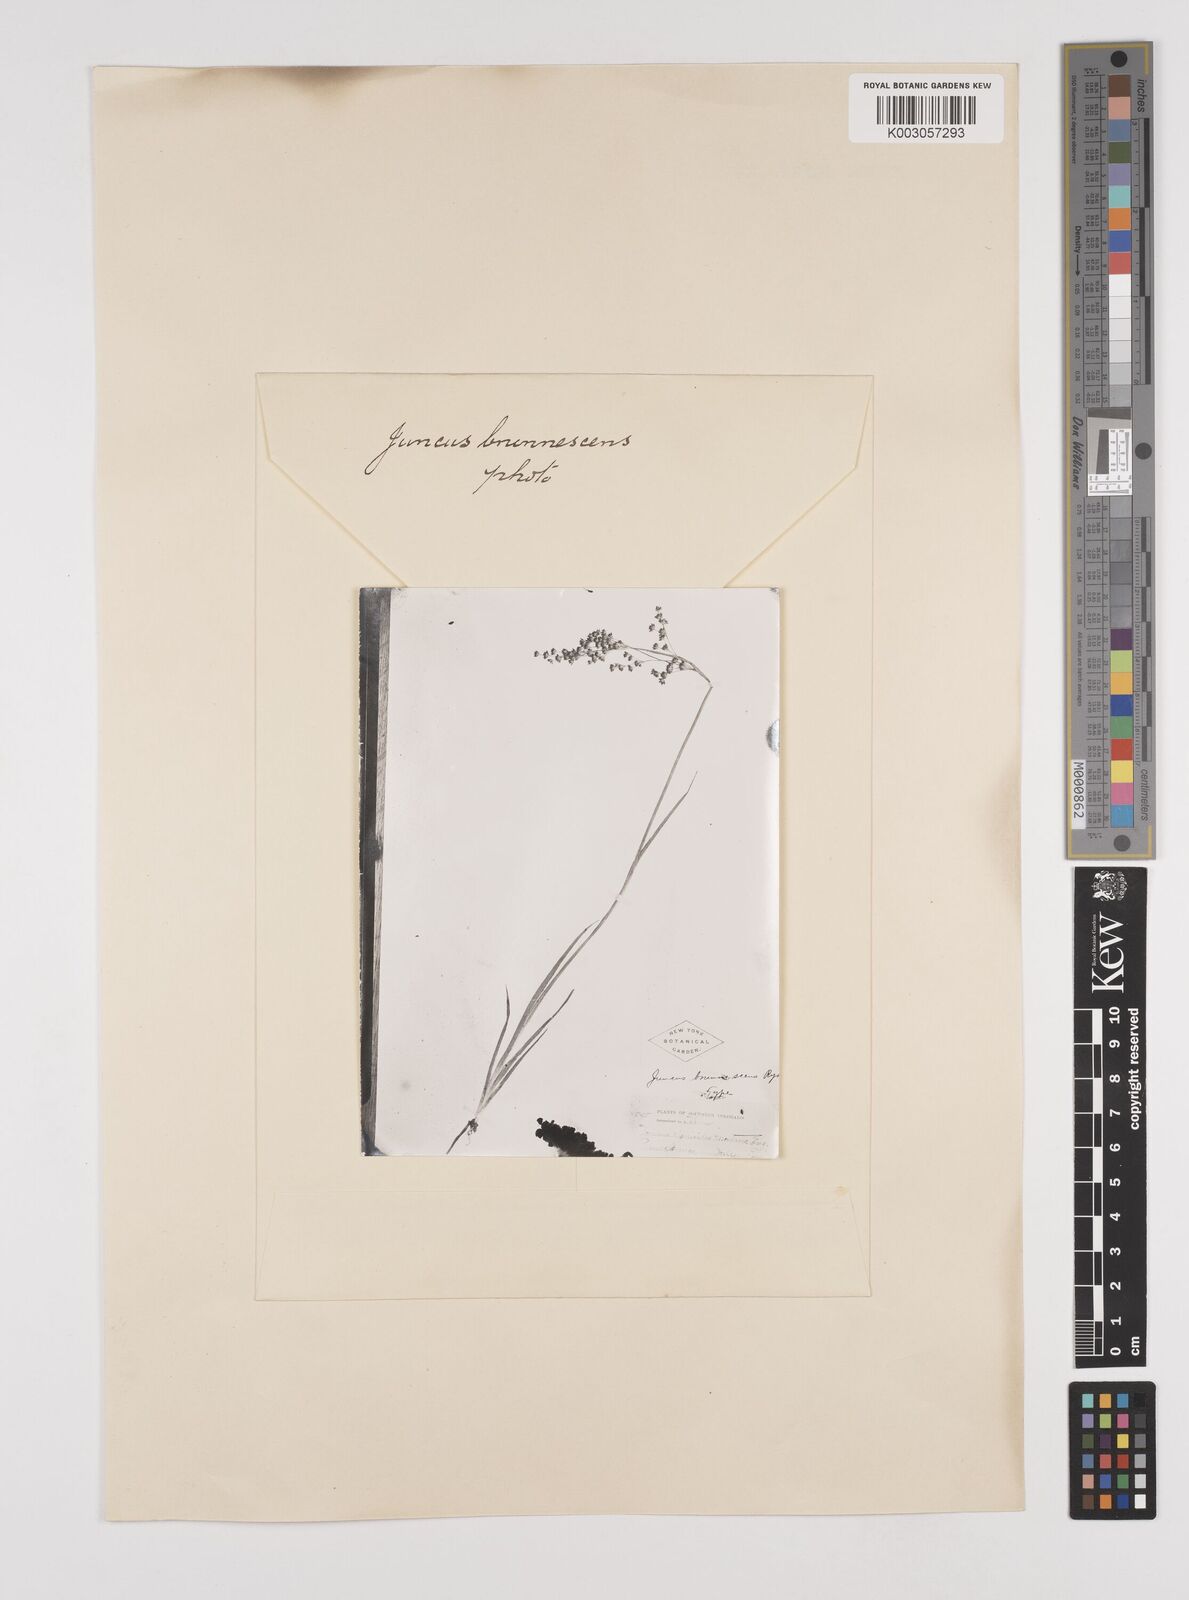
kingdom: Plantae
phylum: Tracheophyta
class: Liliopsida
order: Poales
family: Juncaceae
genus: Juncus
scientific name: Juncus saximontanus
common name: Rocky mountain rush
